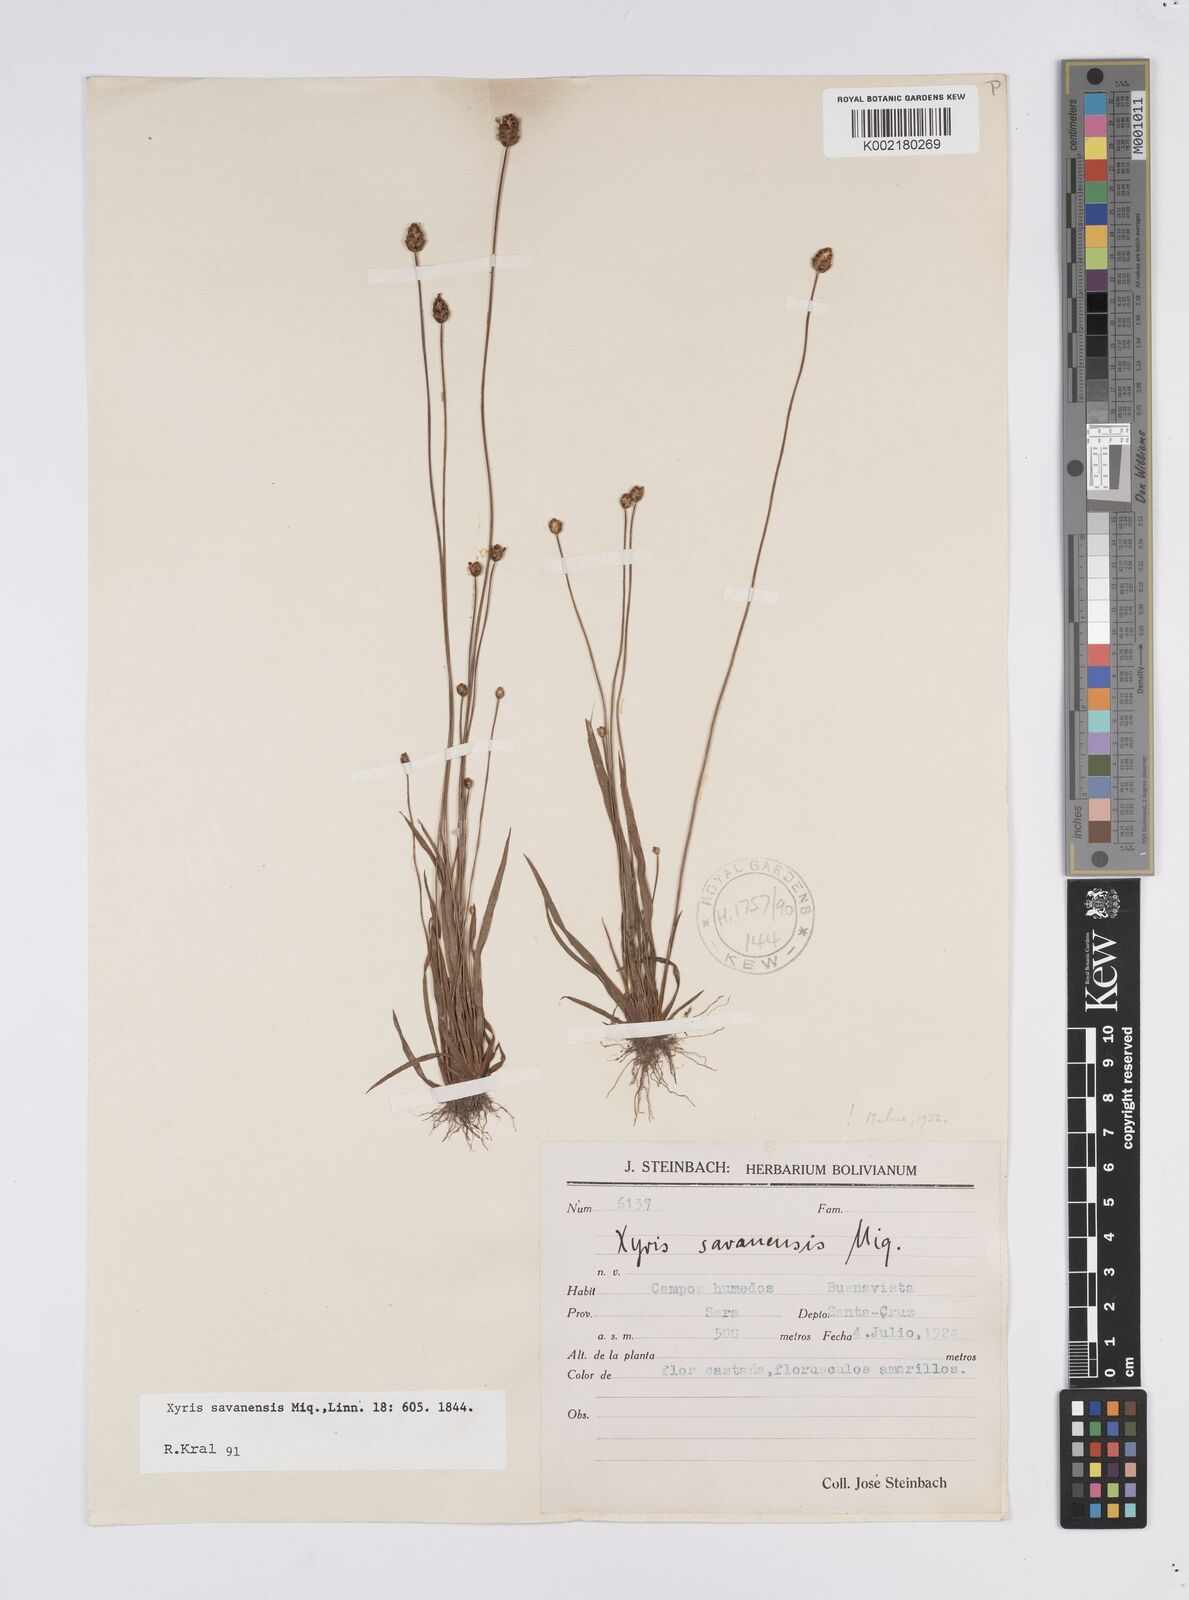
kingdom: Plantae
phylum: Tracheophyta
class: Liliopsida
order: Poales
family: Xyridaceae
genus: Xyris
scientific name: Xyris savanensis
